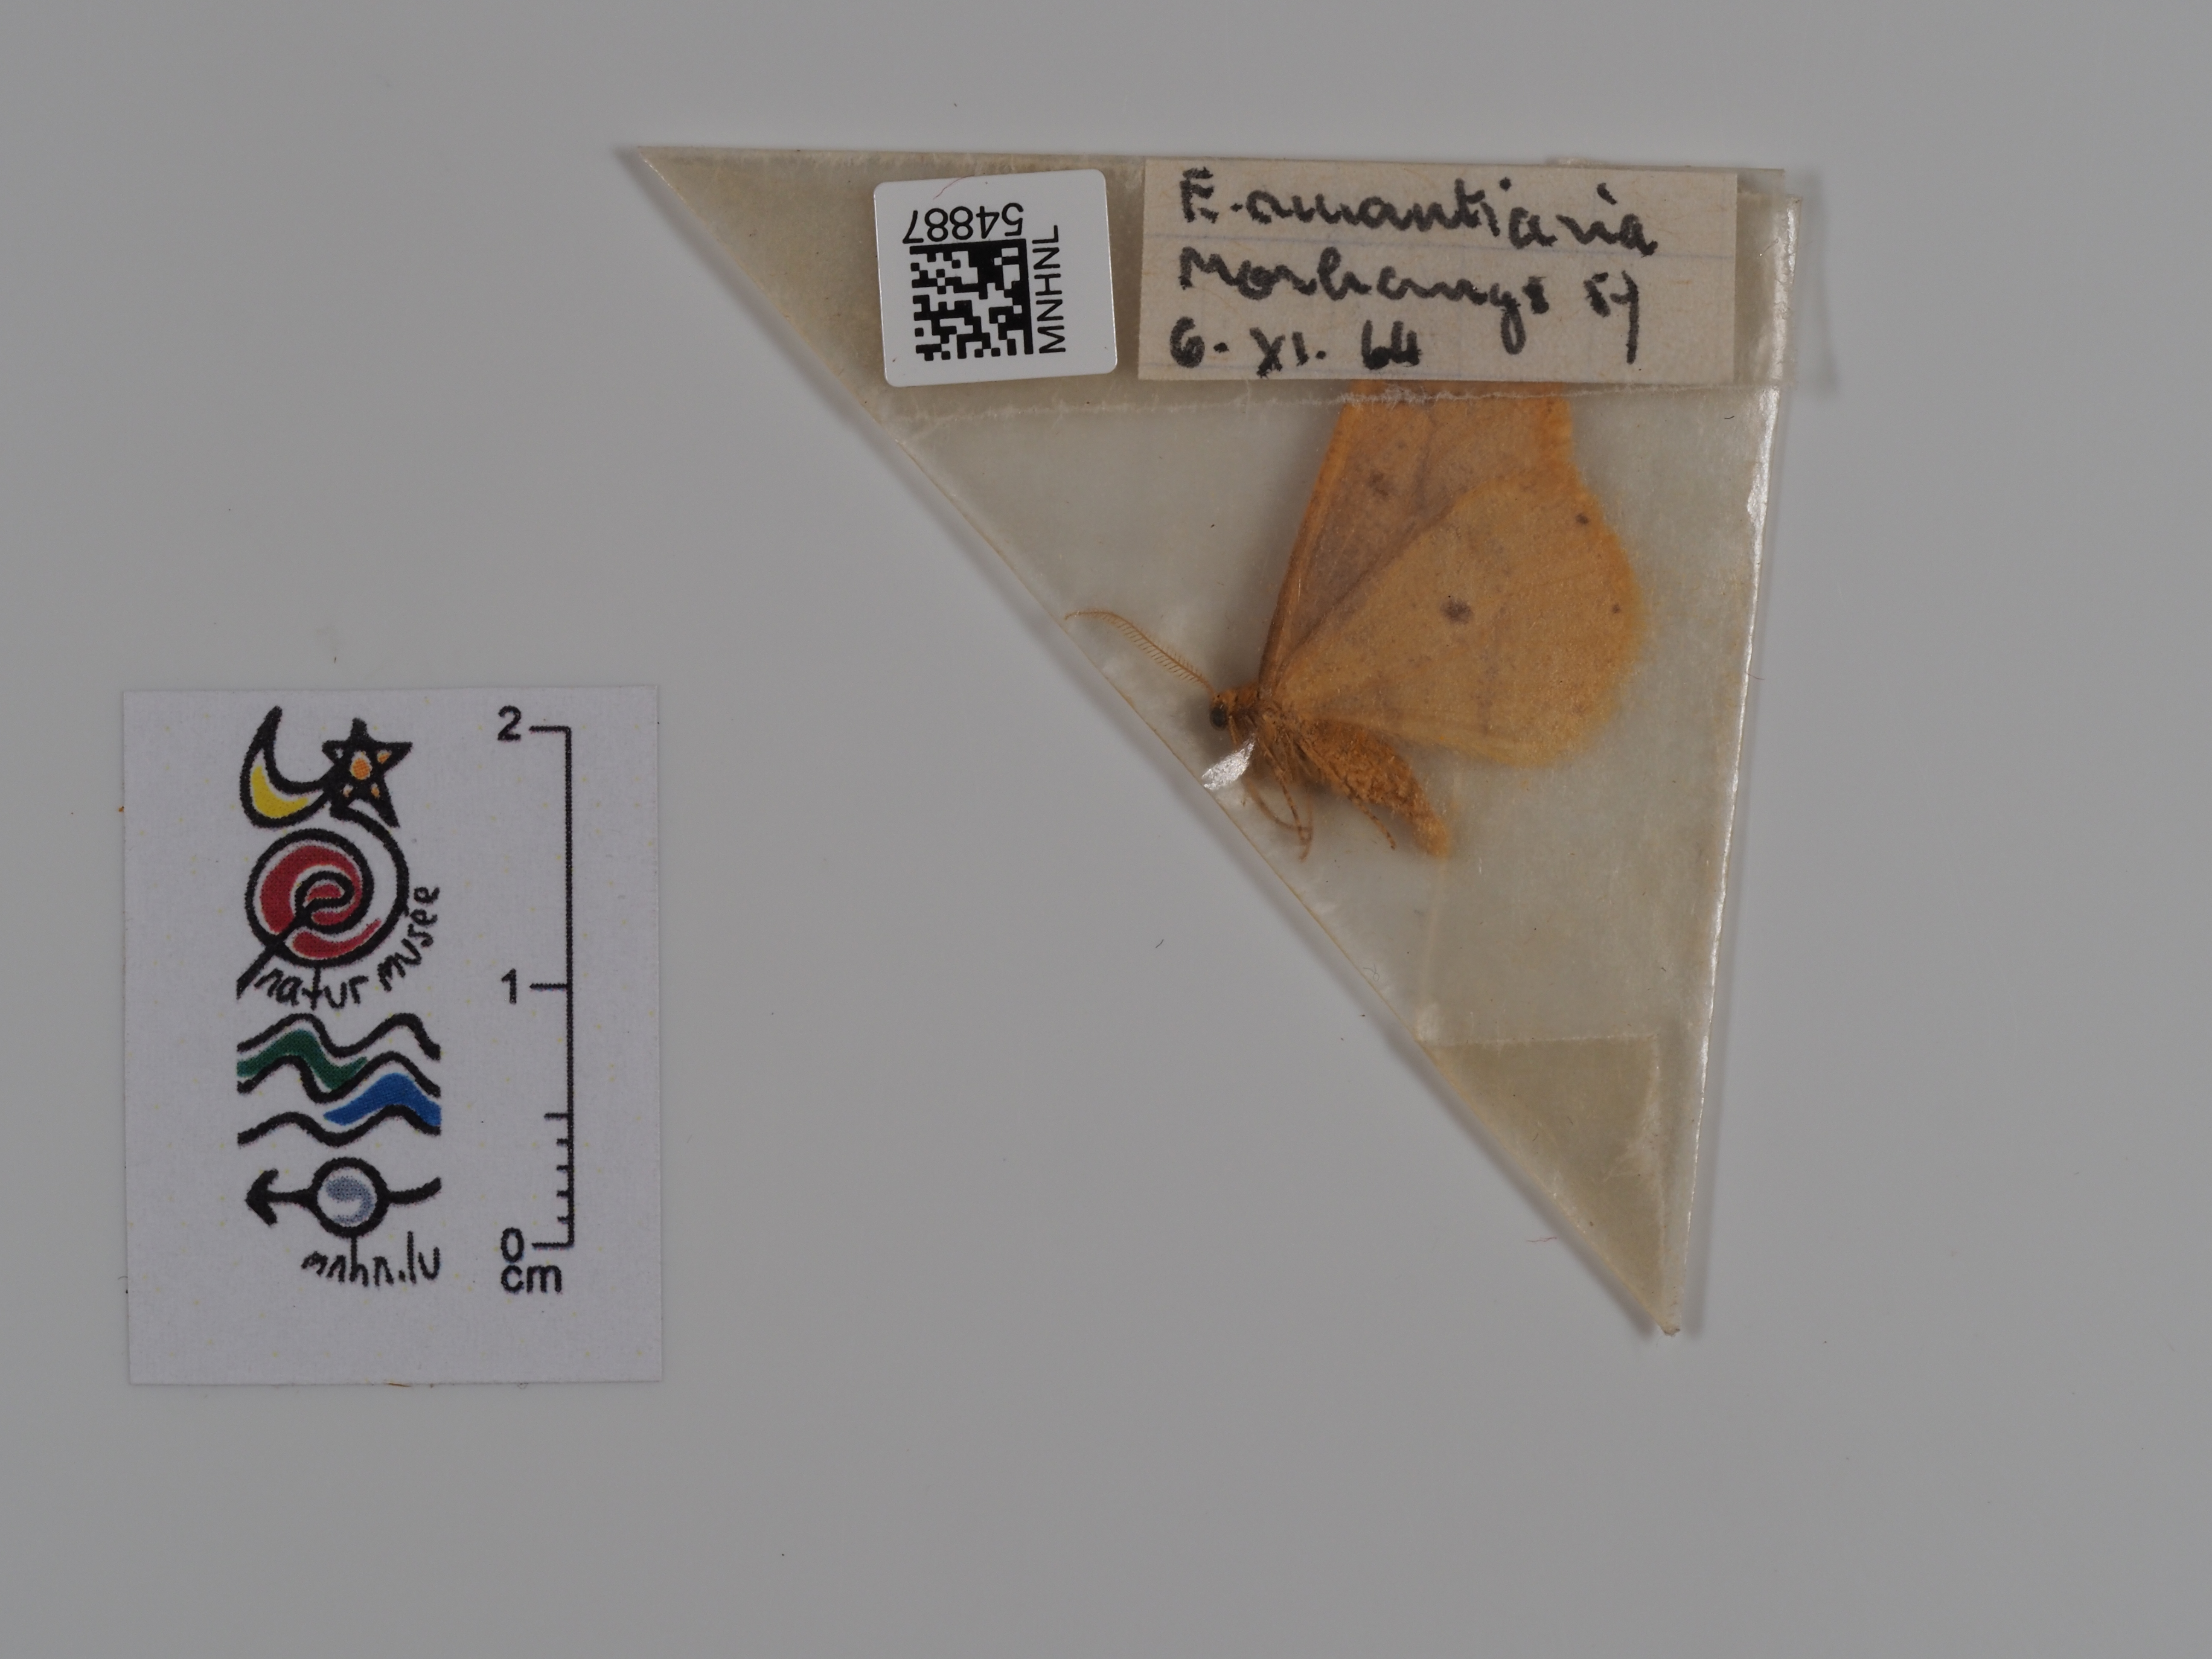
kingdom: Animalia
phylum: Arthropoda
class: Insecta
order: Lepidoptera
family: Geometridae
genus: Erannis
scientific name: Erannis
